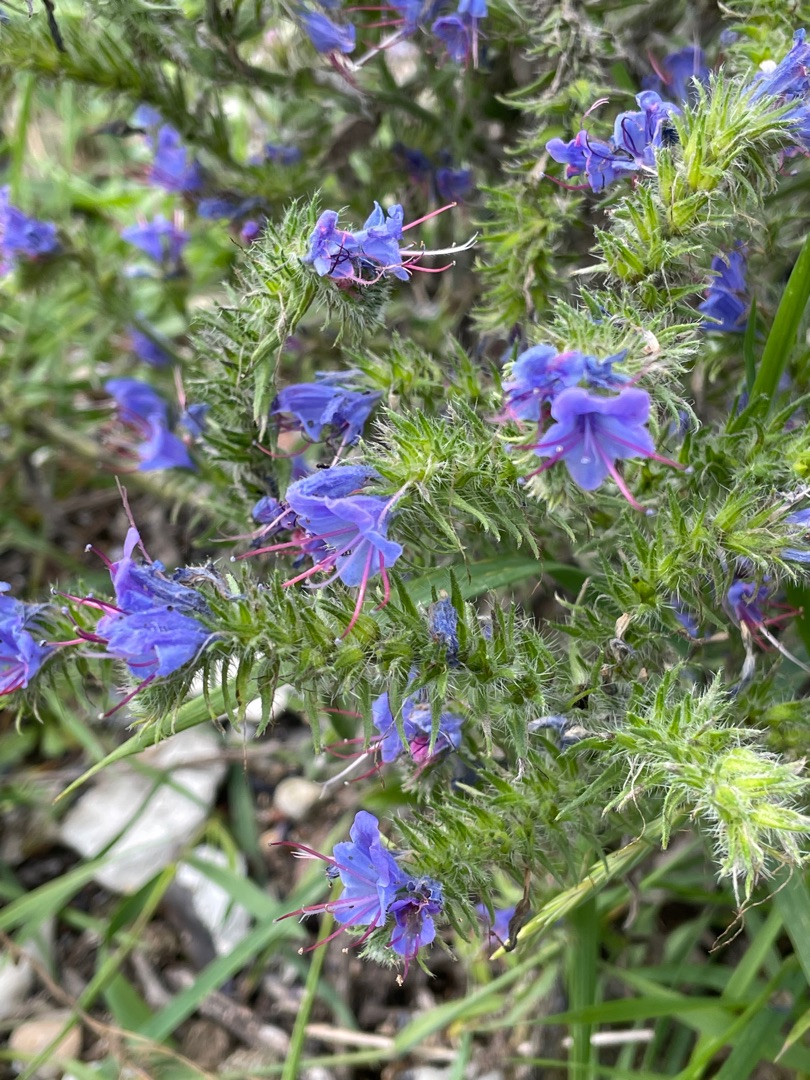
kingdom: Plantae
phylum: Tracheophyta
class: Magnoliopsida
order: Boraginales
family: Boraginaceae
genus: Echium
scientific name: Echium vulgare
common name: Slangehoved
